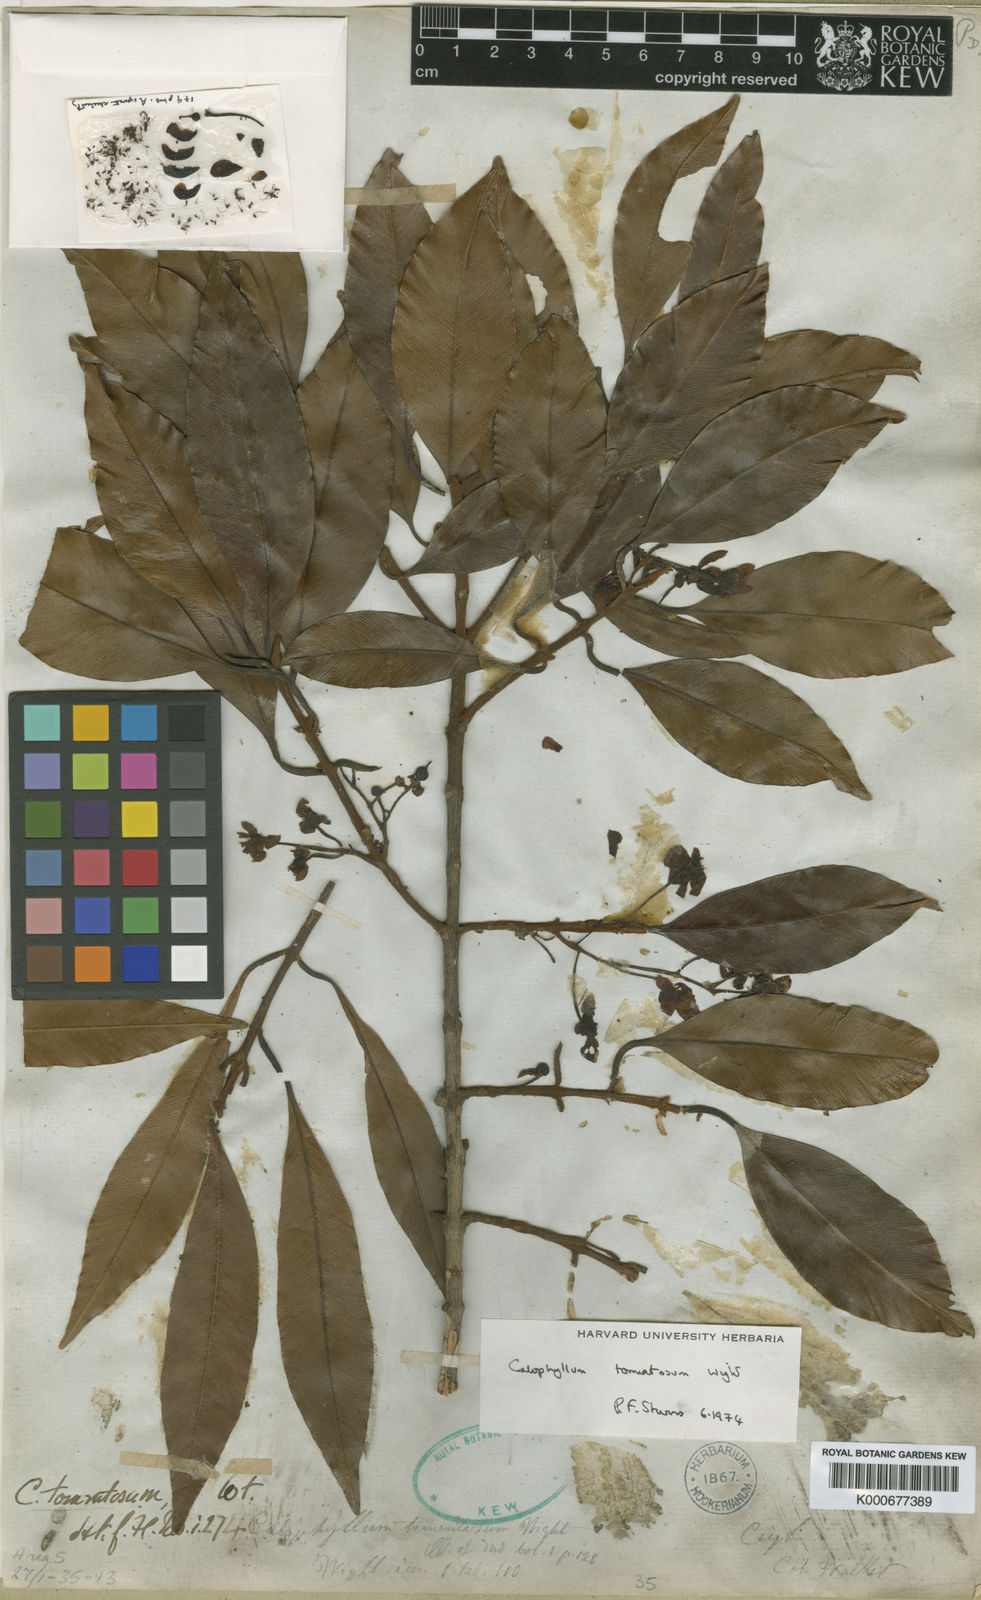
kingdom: Plantae
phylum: Tracheophyta
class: Magnoliopsida
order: Malpighiales
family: Calophyllaceae
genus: Calophyllum
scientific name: Calophyllum tomentosum
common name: Pink touriga
